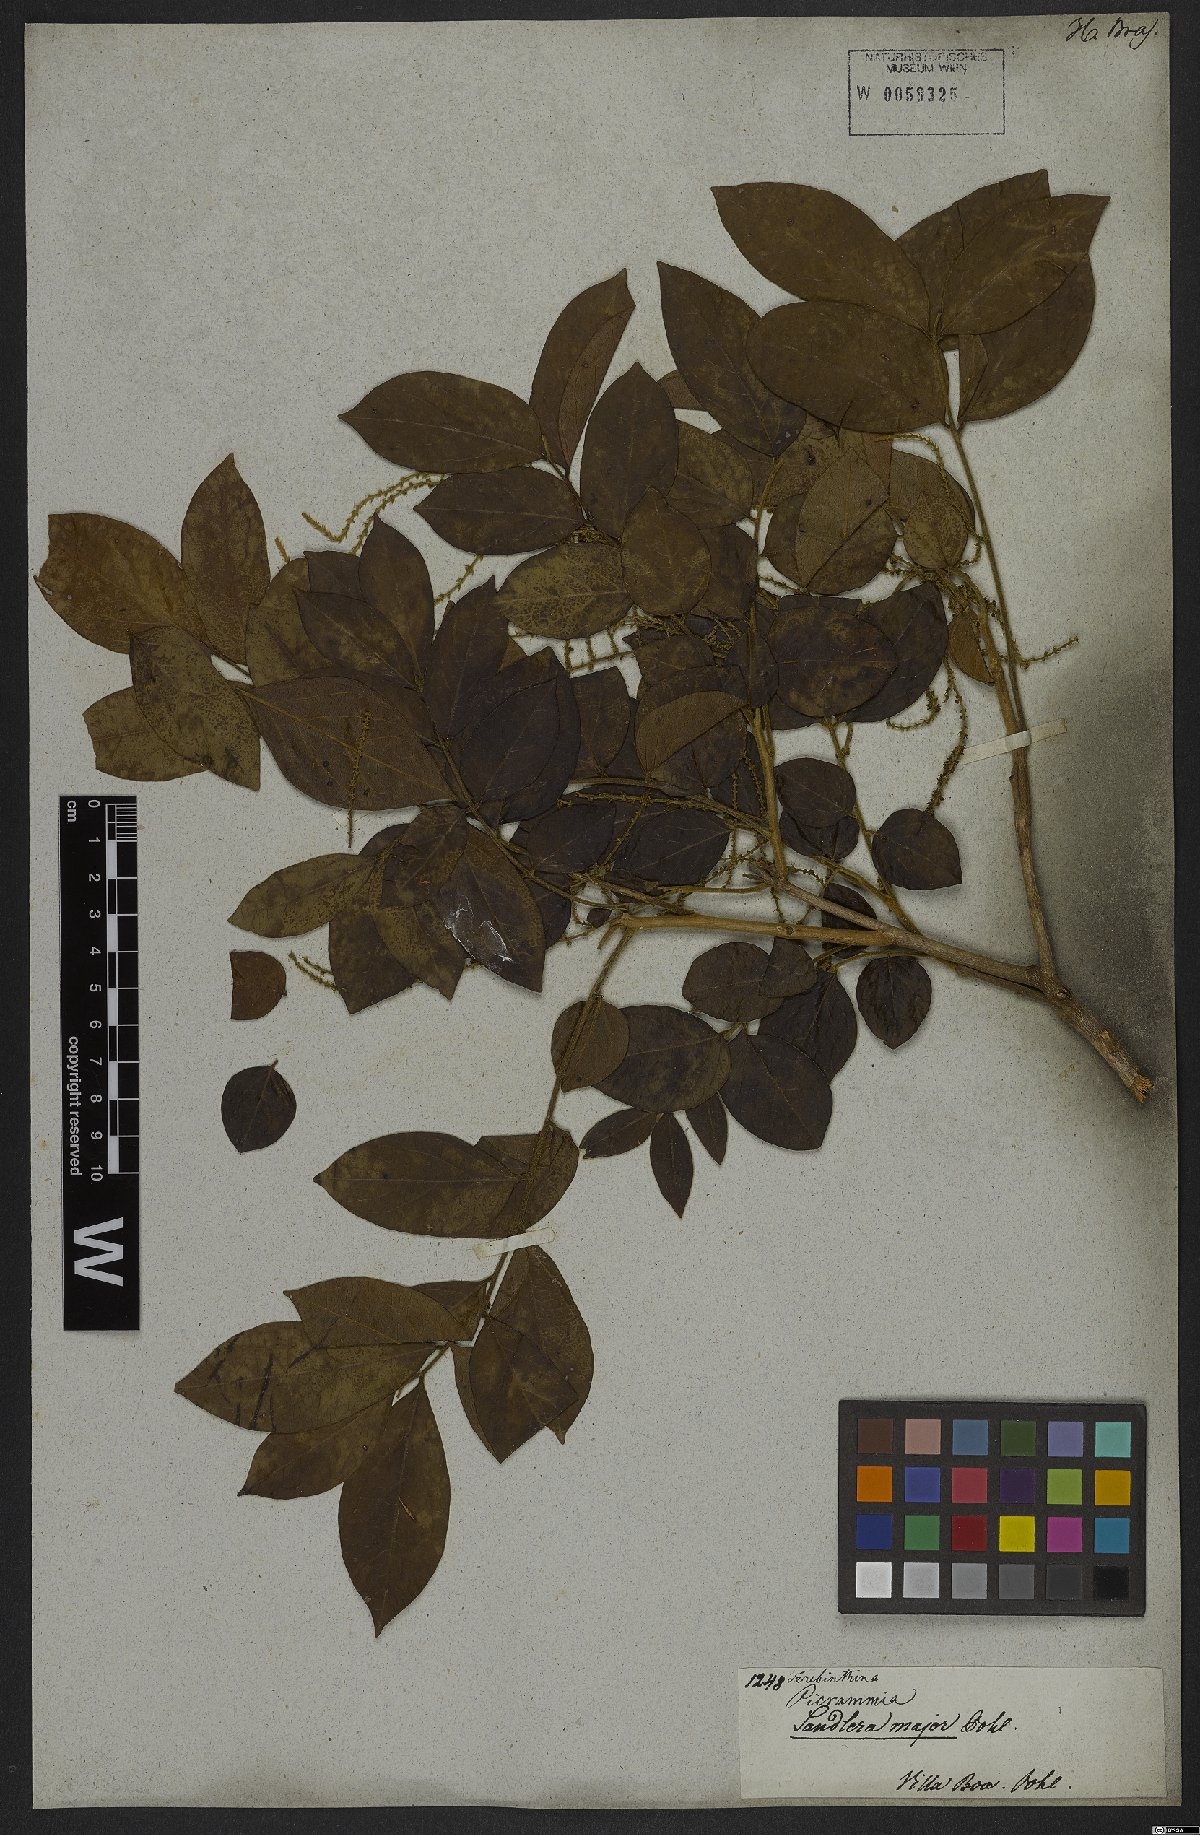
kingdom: Plantae
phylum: Tracheophyta
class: Magnoliopsida
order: Picramniales
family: Picramniaceae
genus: Picramnia
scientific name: Picramnia sellowii
